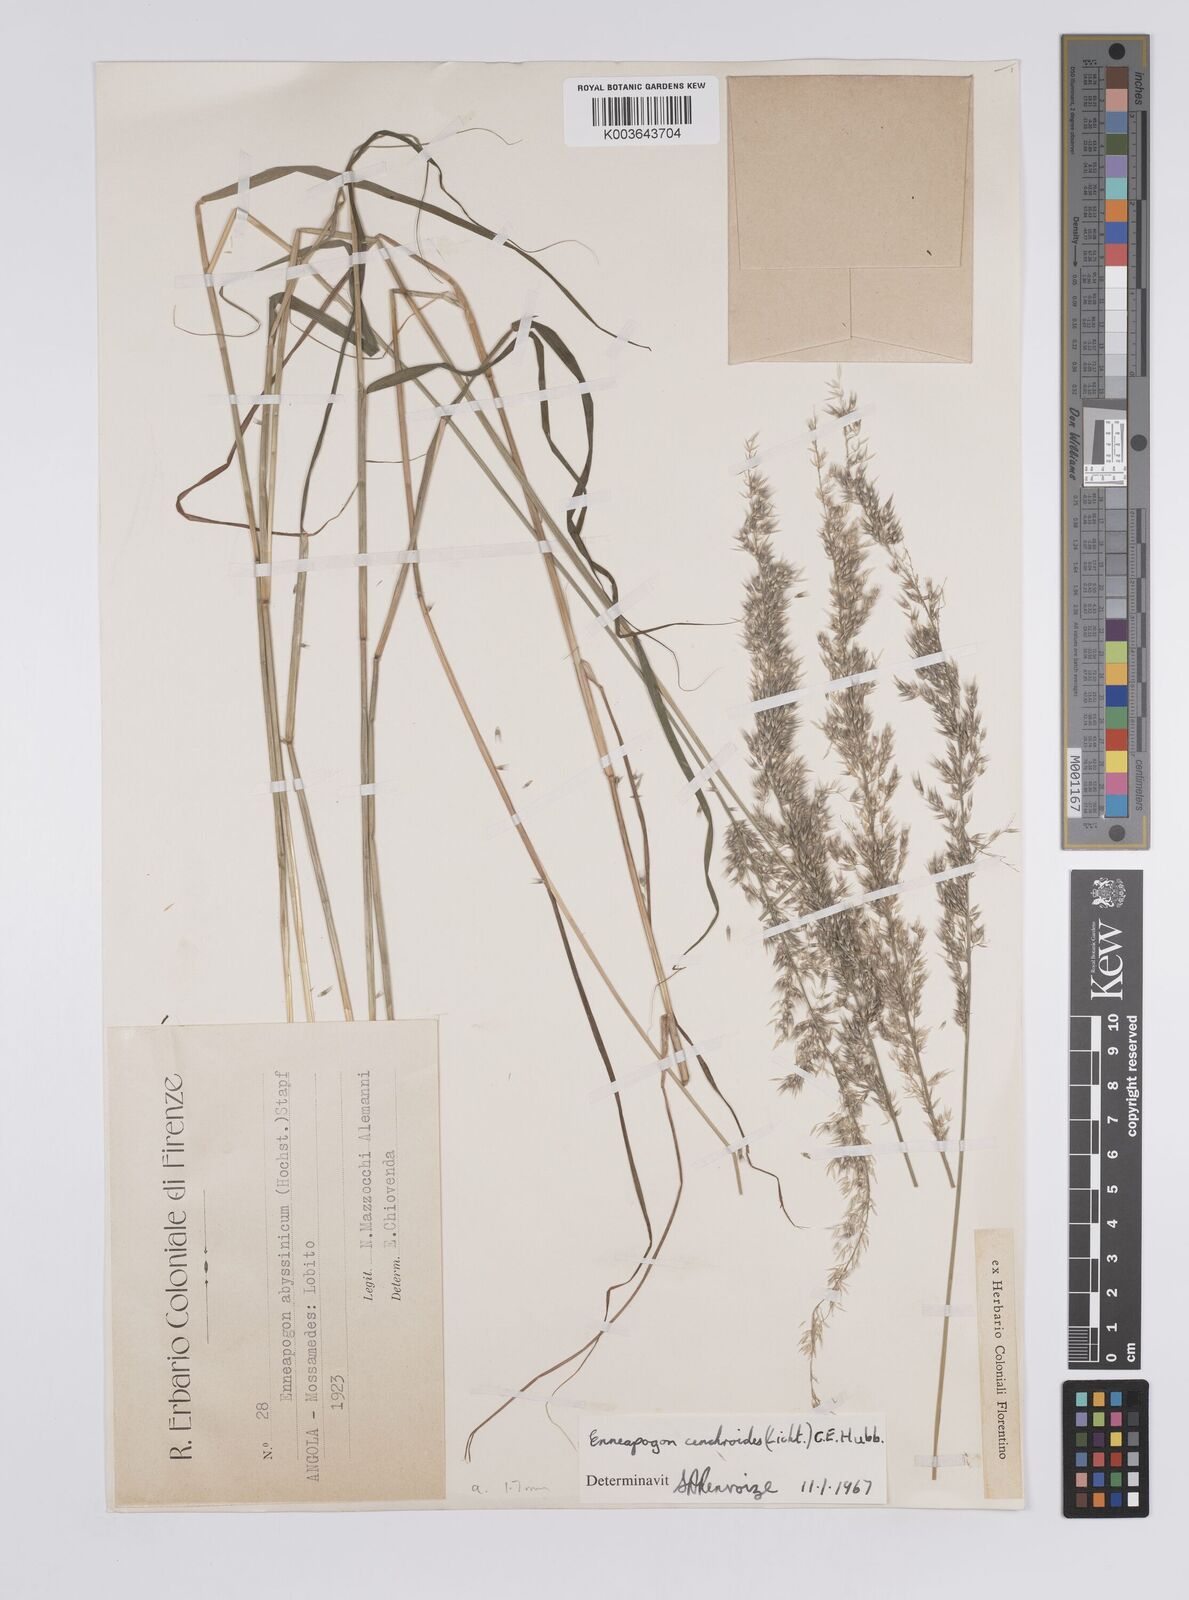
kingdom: Plantae
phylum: Tracheophyta
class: Liliopsida
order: Poales
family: Poaceae
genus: Enneapogon
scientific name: Enneapogon cenchroides
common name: Soft feather pappusgrass
